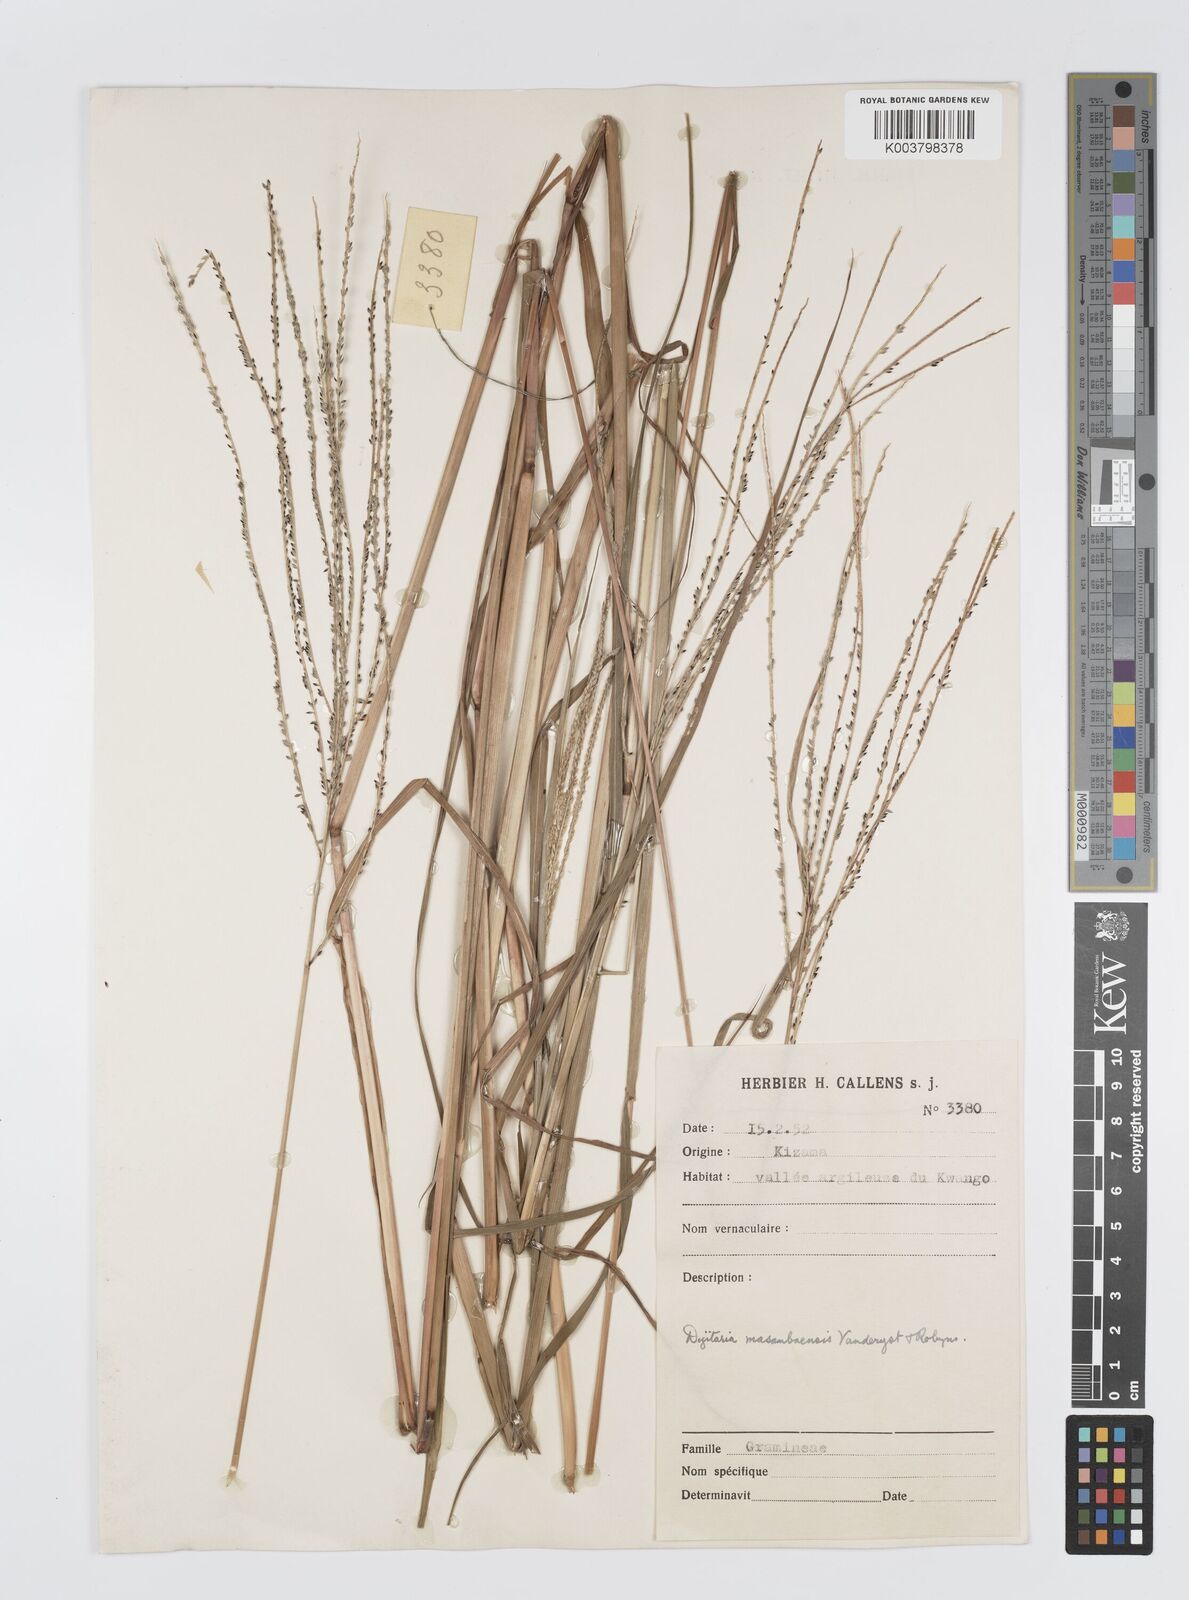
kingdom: Plantae
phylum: Tracheophyta
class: Liliopsida
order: Poales
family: Poaceae
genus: Digitaria
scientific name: Digitaria atrofusca
